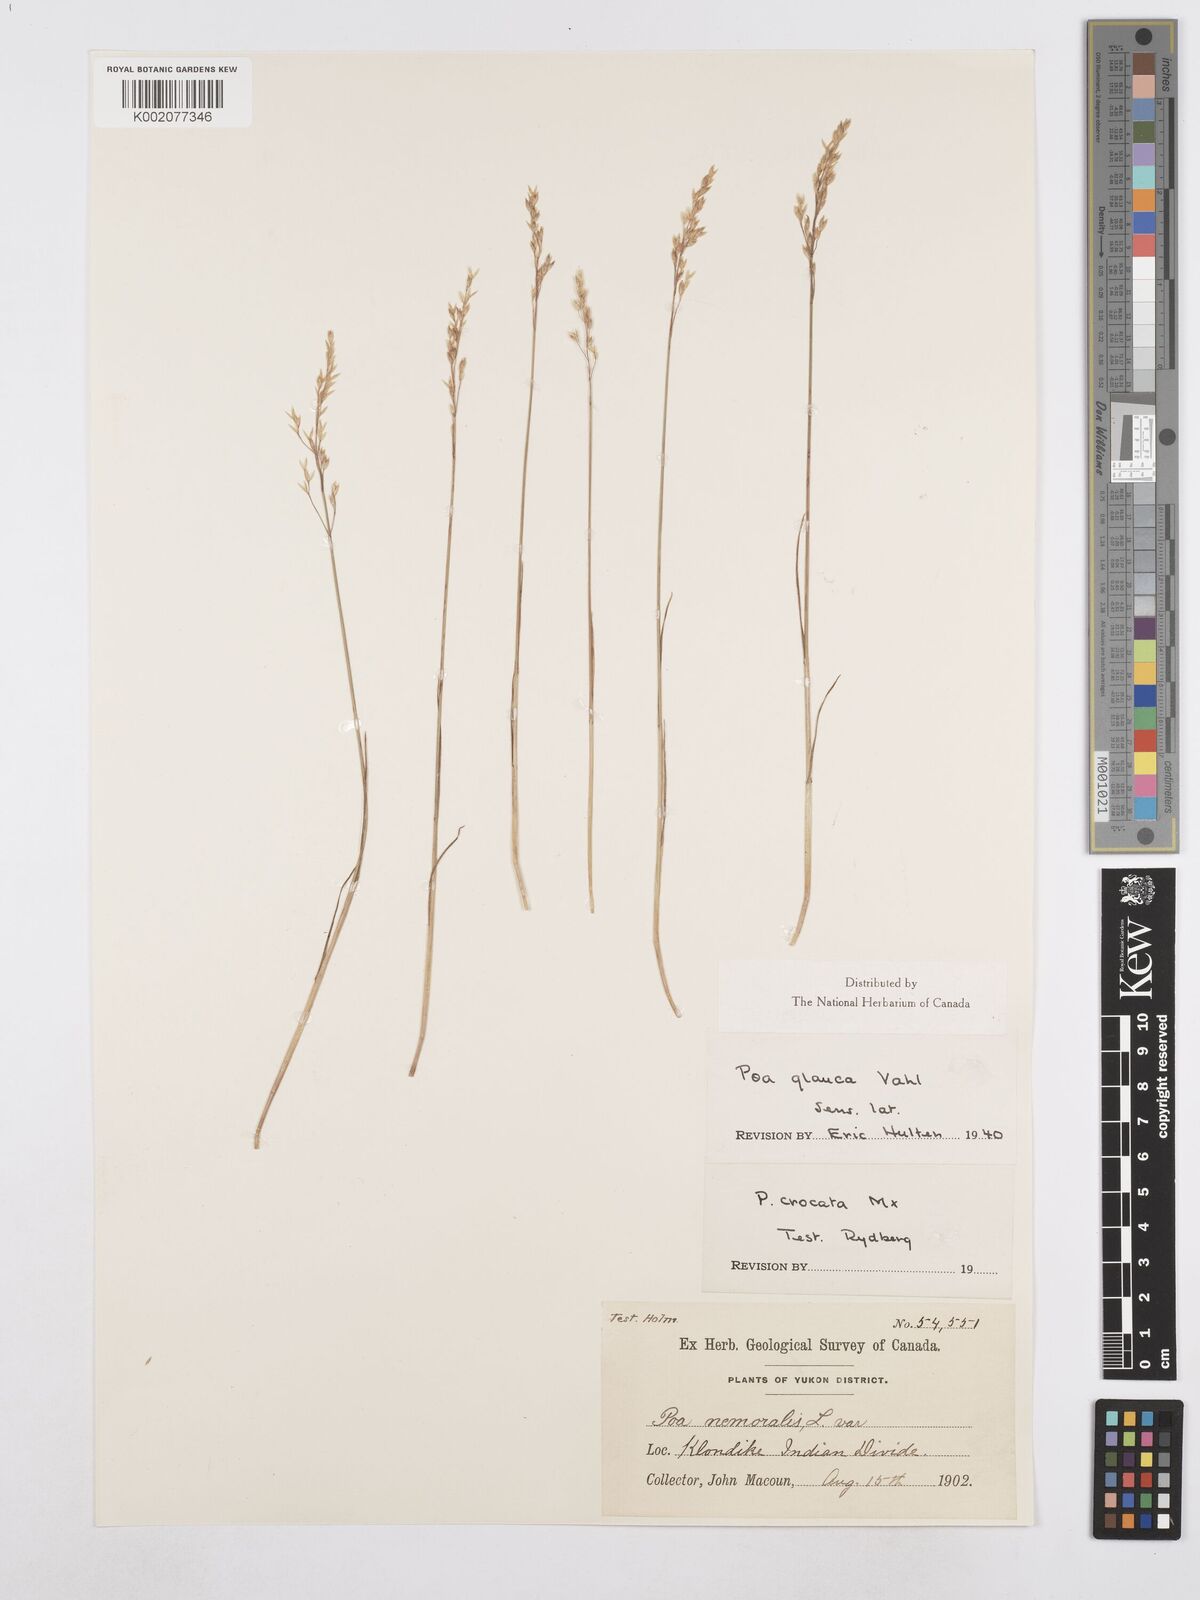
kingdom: Plantae
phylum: Tracheophyta
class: Liliopsida
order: Poales
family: Poaceae
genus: Poa
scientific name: Poa glauca
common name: Glaucous bluegrass
